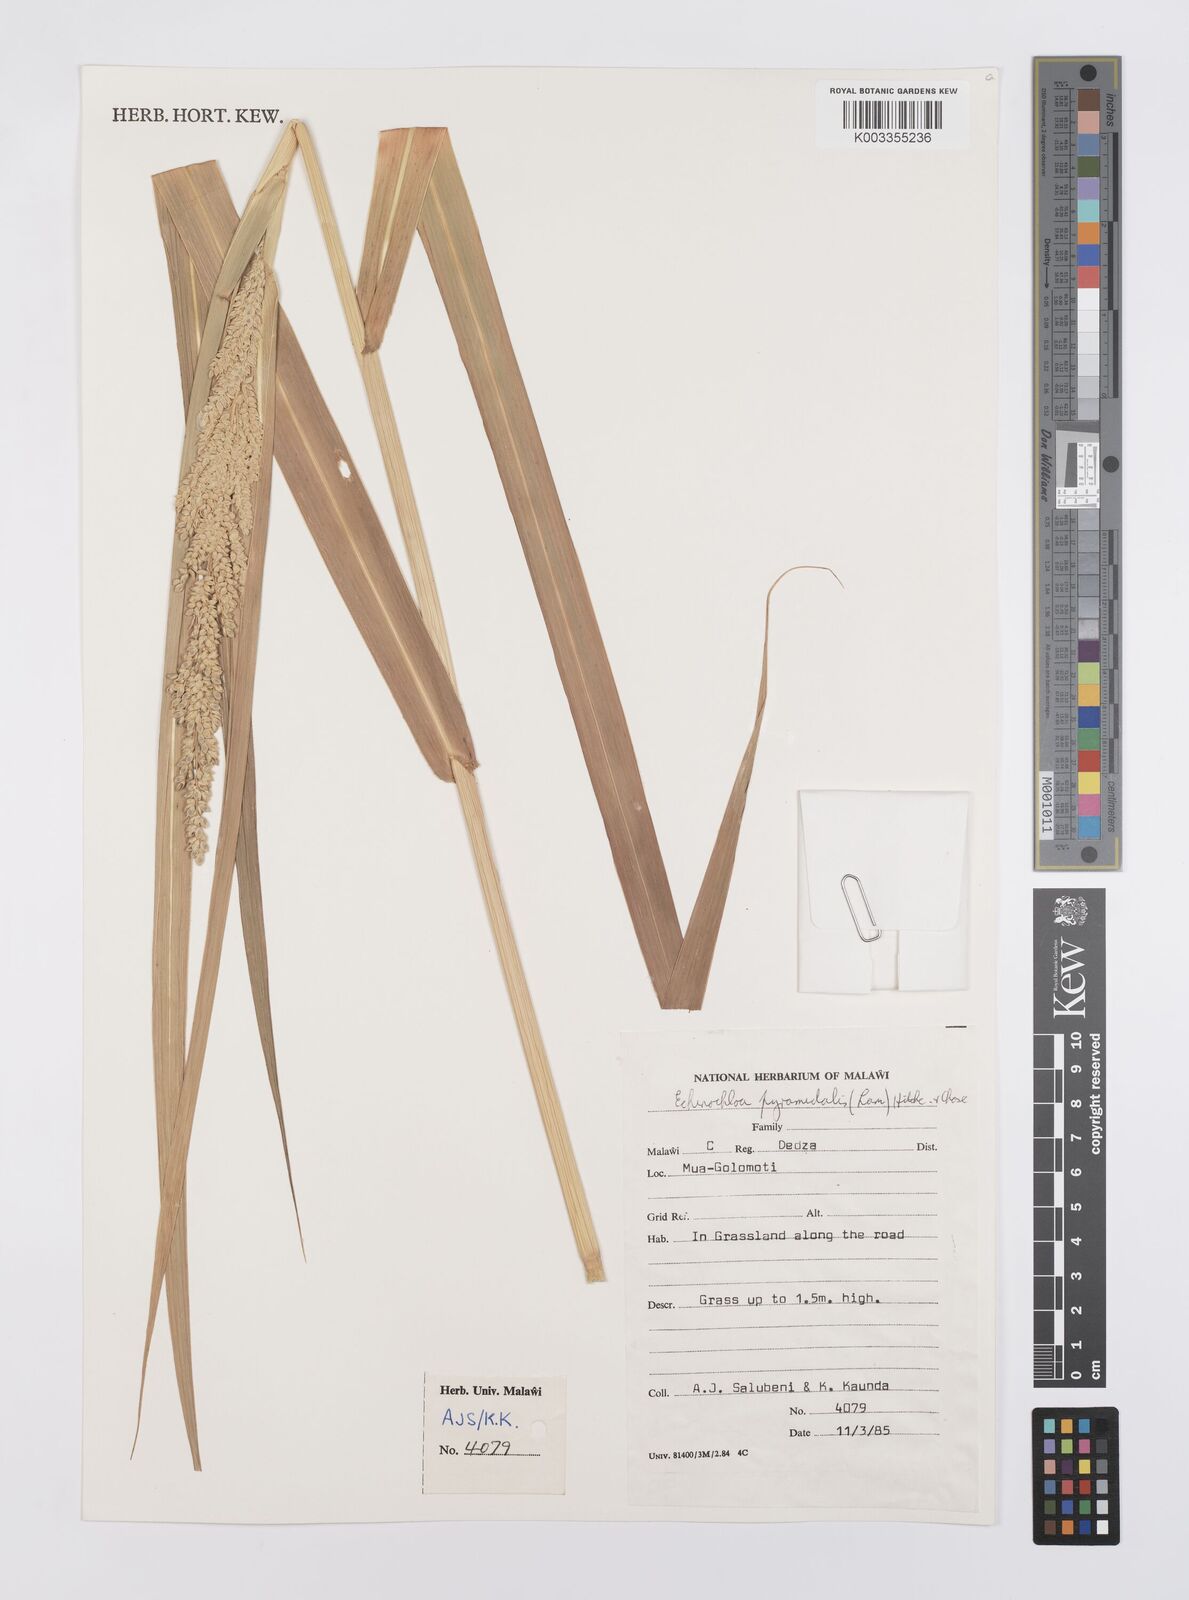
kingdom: Plantae
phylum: Tracheophyta
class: Liliopsida
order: Poales
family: Poaceae
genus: Echinochloa
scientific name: Echinochloa pyramidalis
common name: Antelope grass
